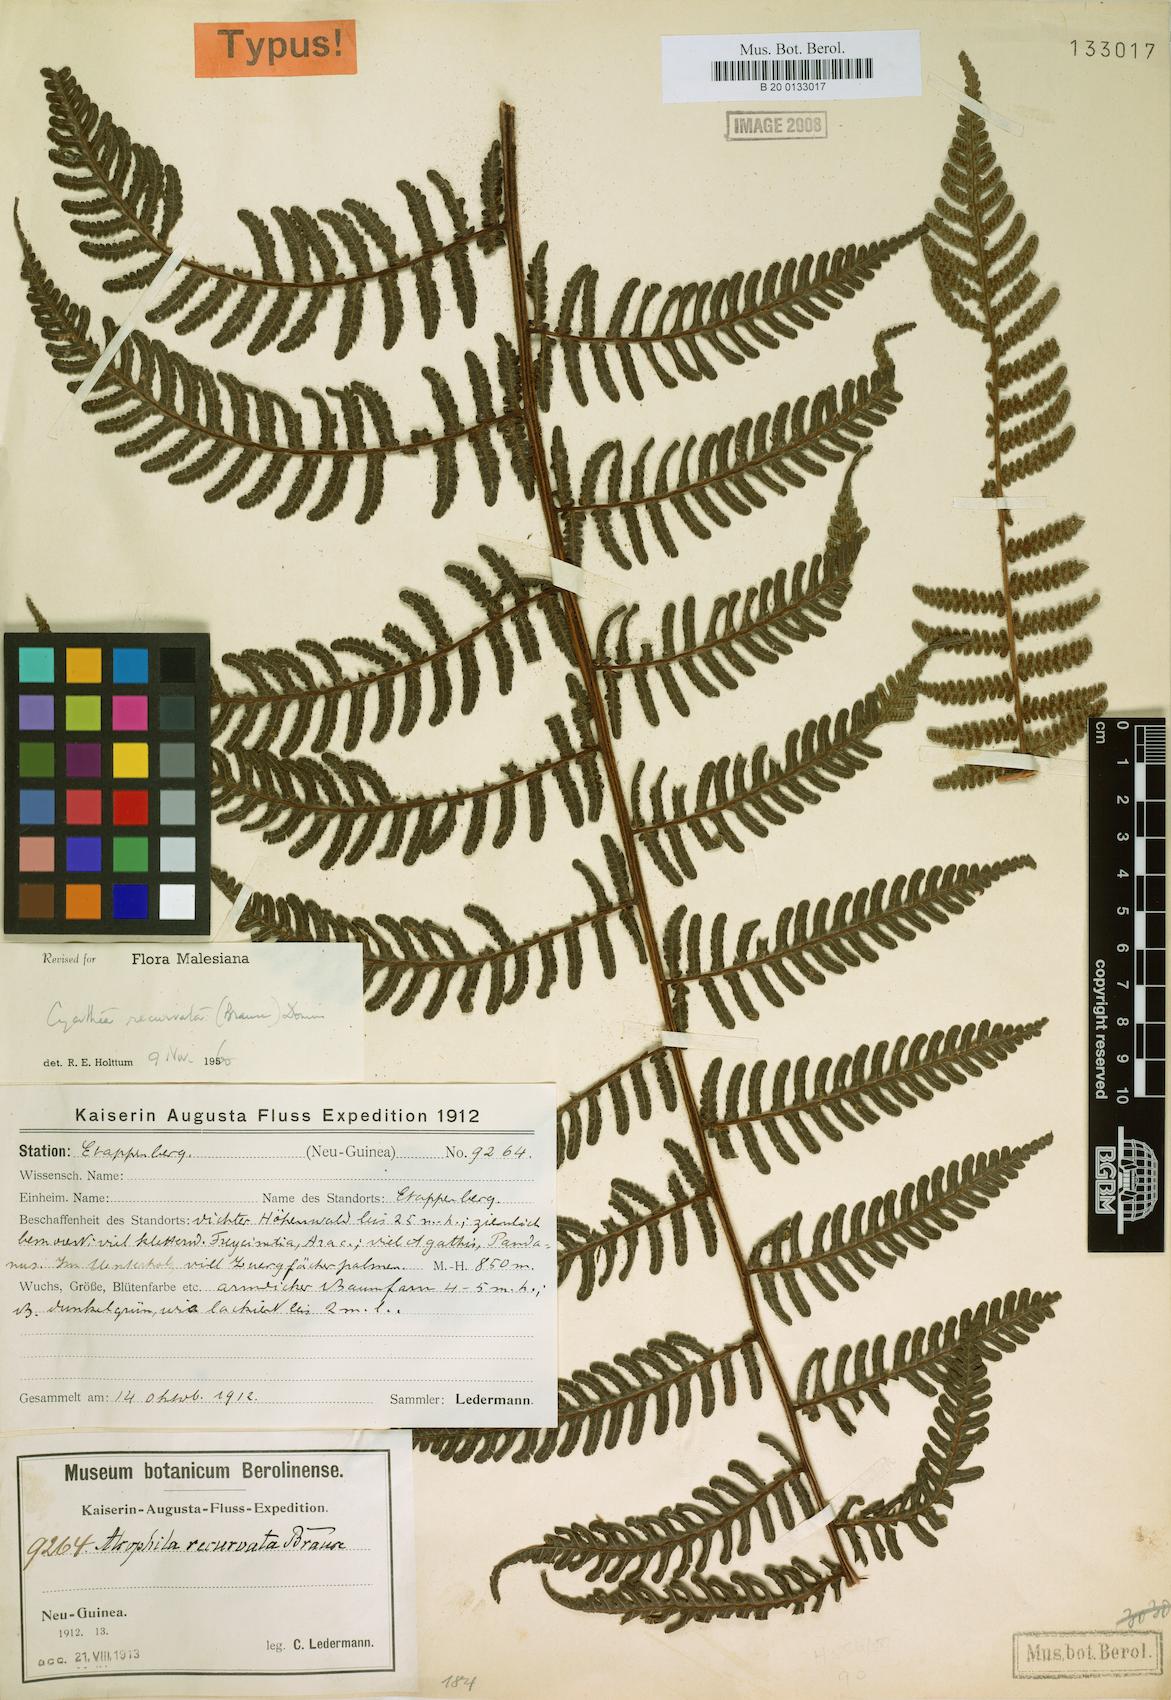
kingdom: Plantae
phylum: Tracheophyta
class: Polypodiopsida
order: Cyatheales
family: Cyatheaceae
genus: Alsophila
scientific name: Alsophila recurvata
